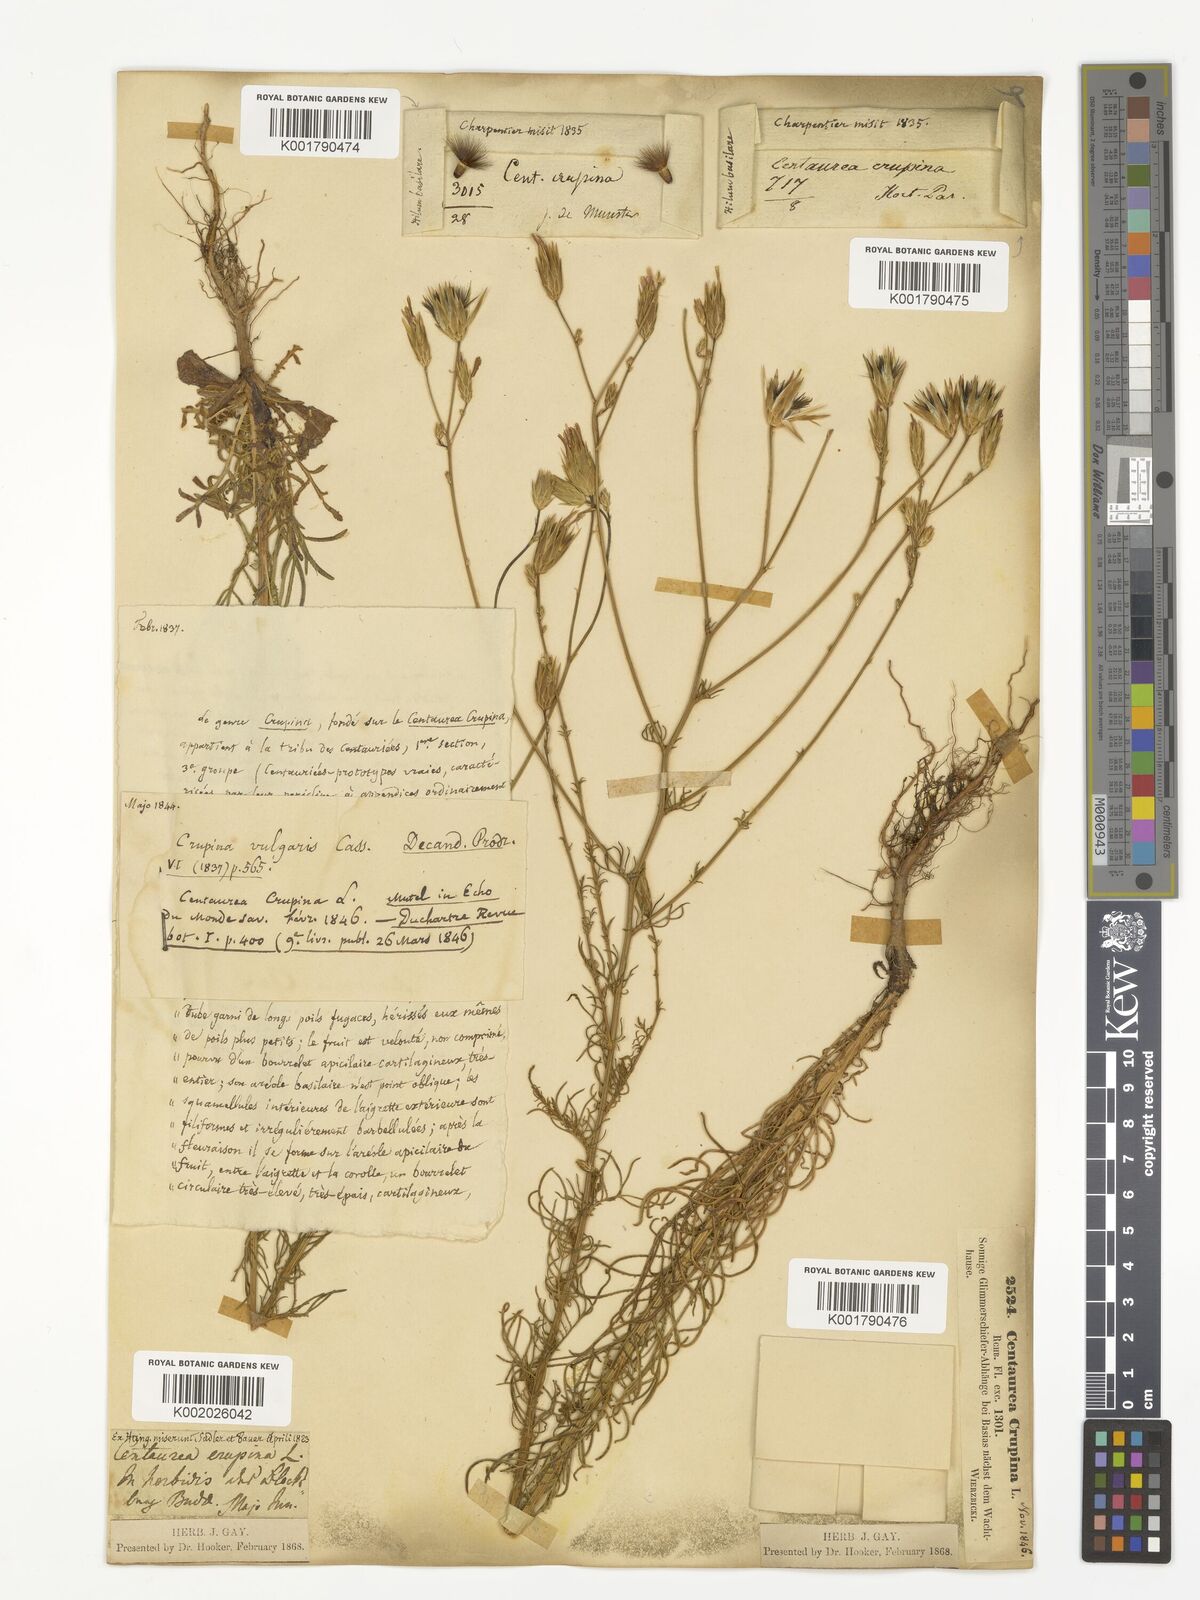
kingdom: Plantae
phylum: Tracheophyta
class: Magnoliopsida
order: Asterales
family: Asteraceae
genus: Crupina
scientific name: Crupina crupinastrum
